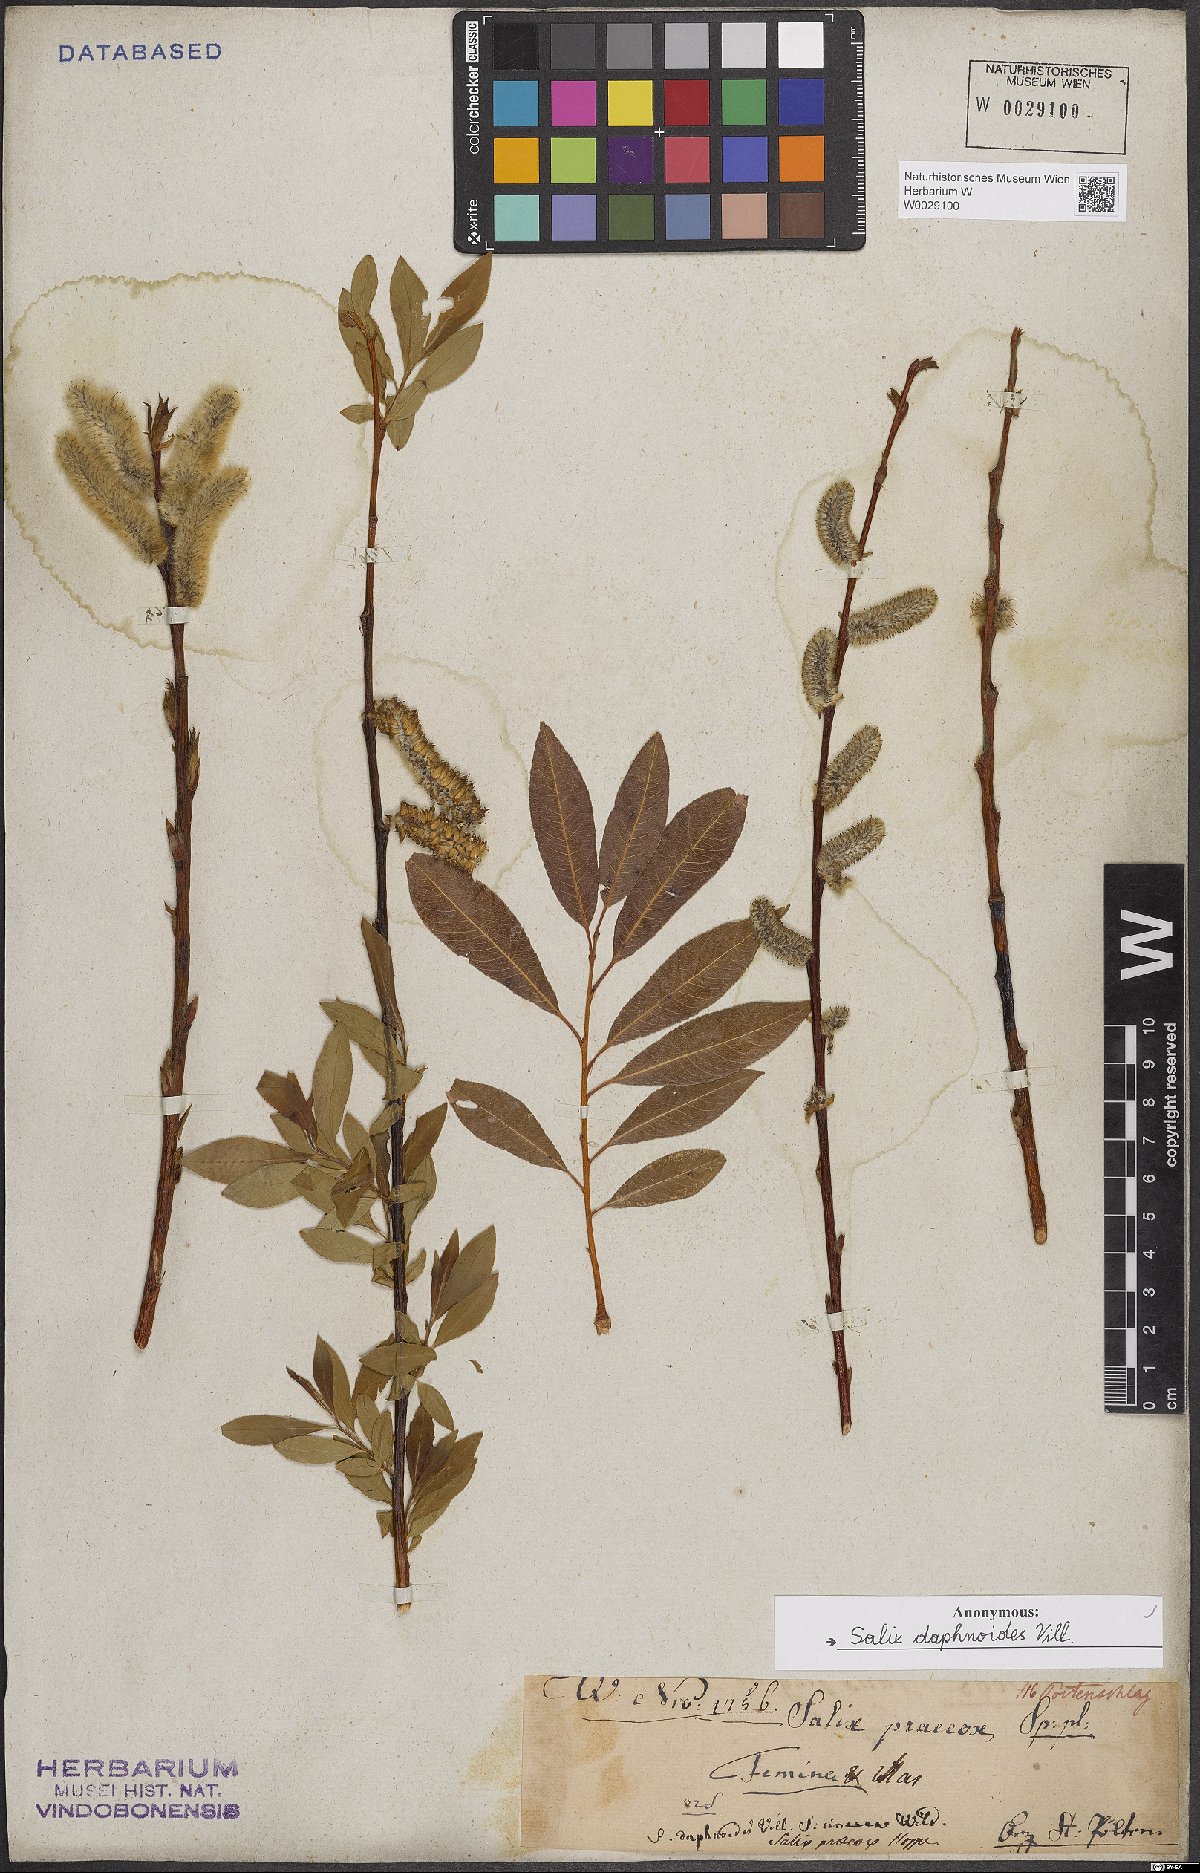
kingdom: Plantae
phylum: Tracheophyta
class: Magnoliopsida
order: Malpighiales
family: Salicaceae
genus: Salix
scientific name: Salix daphnoides
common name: European violet-willow
